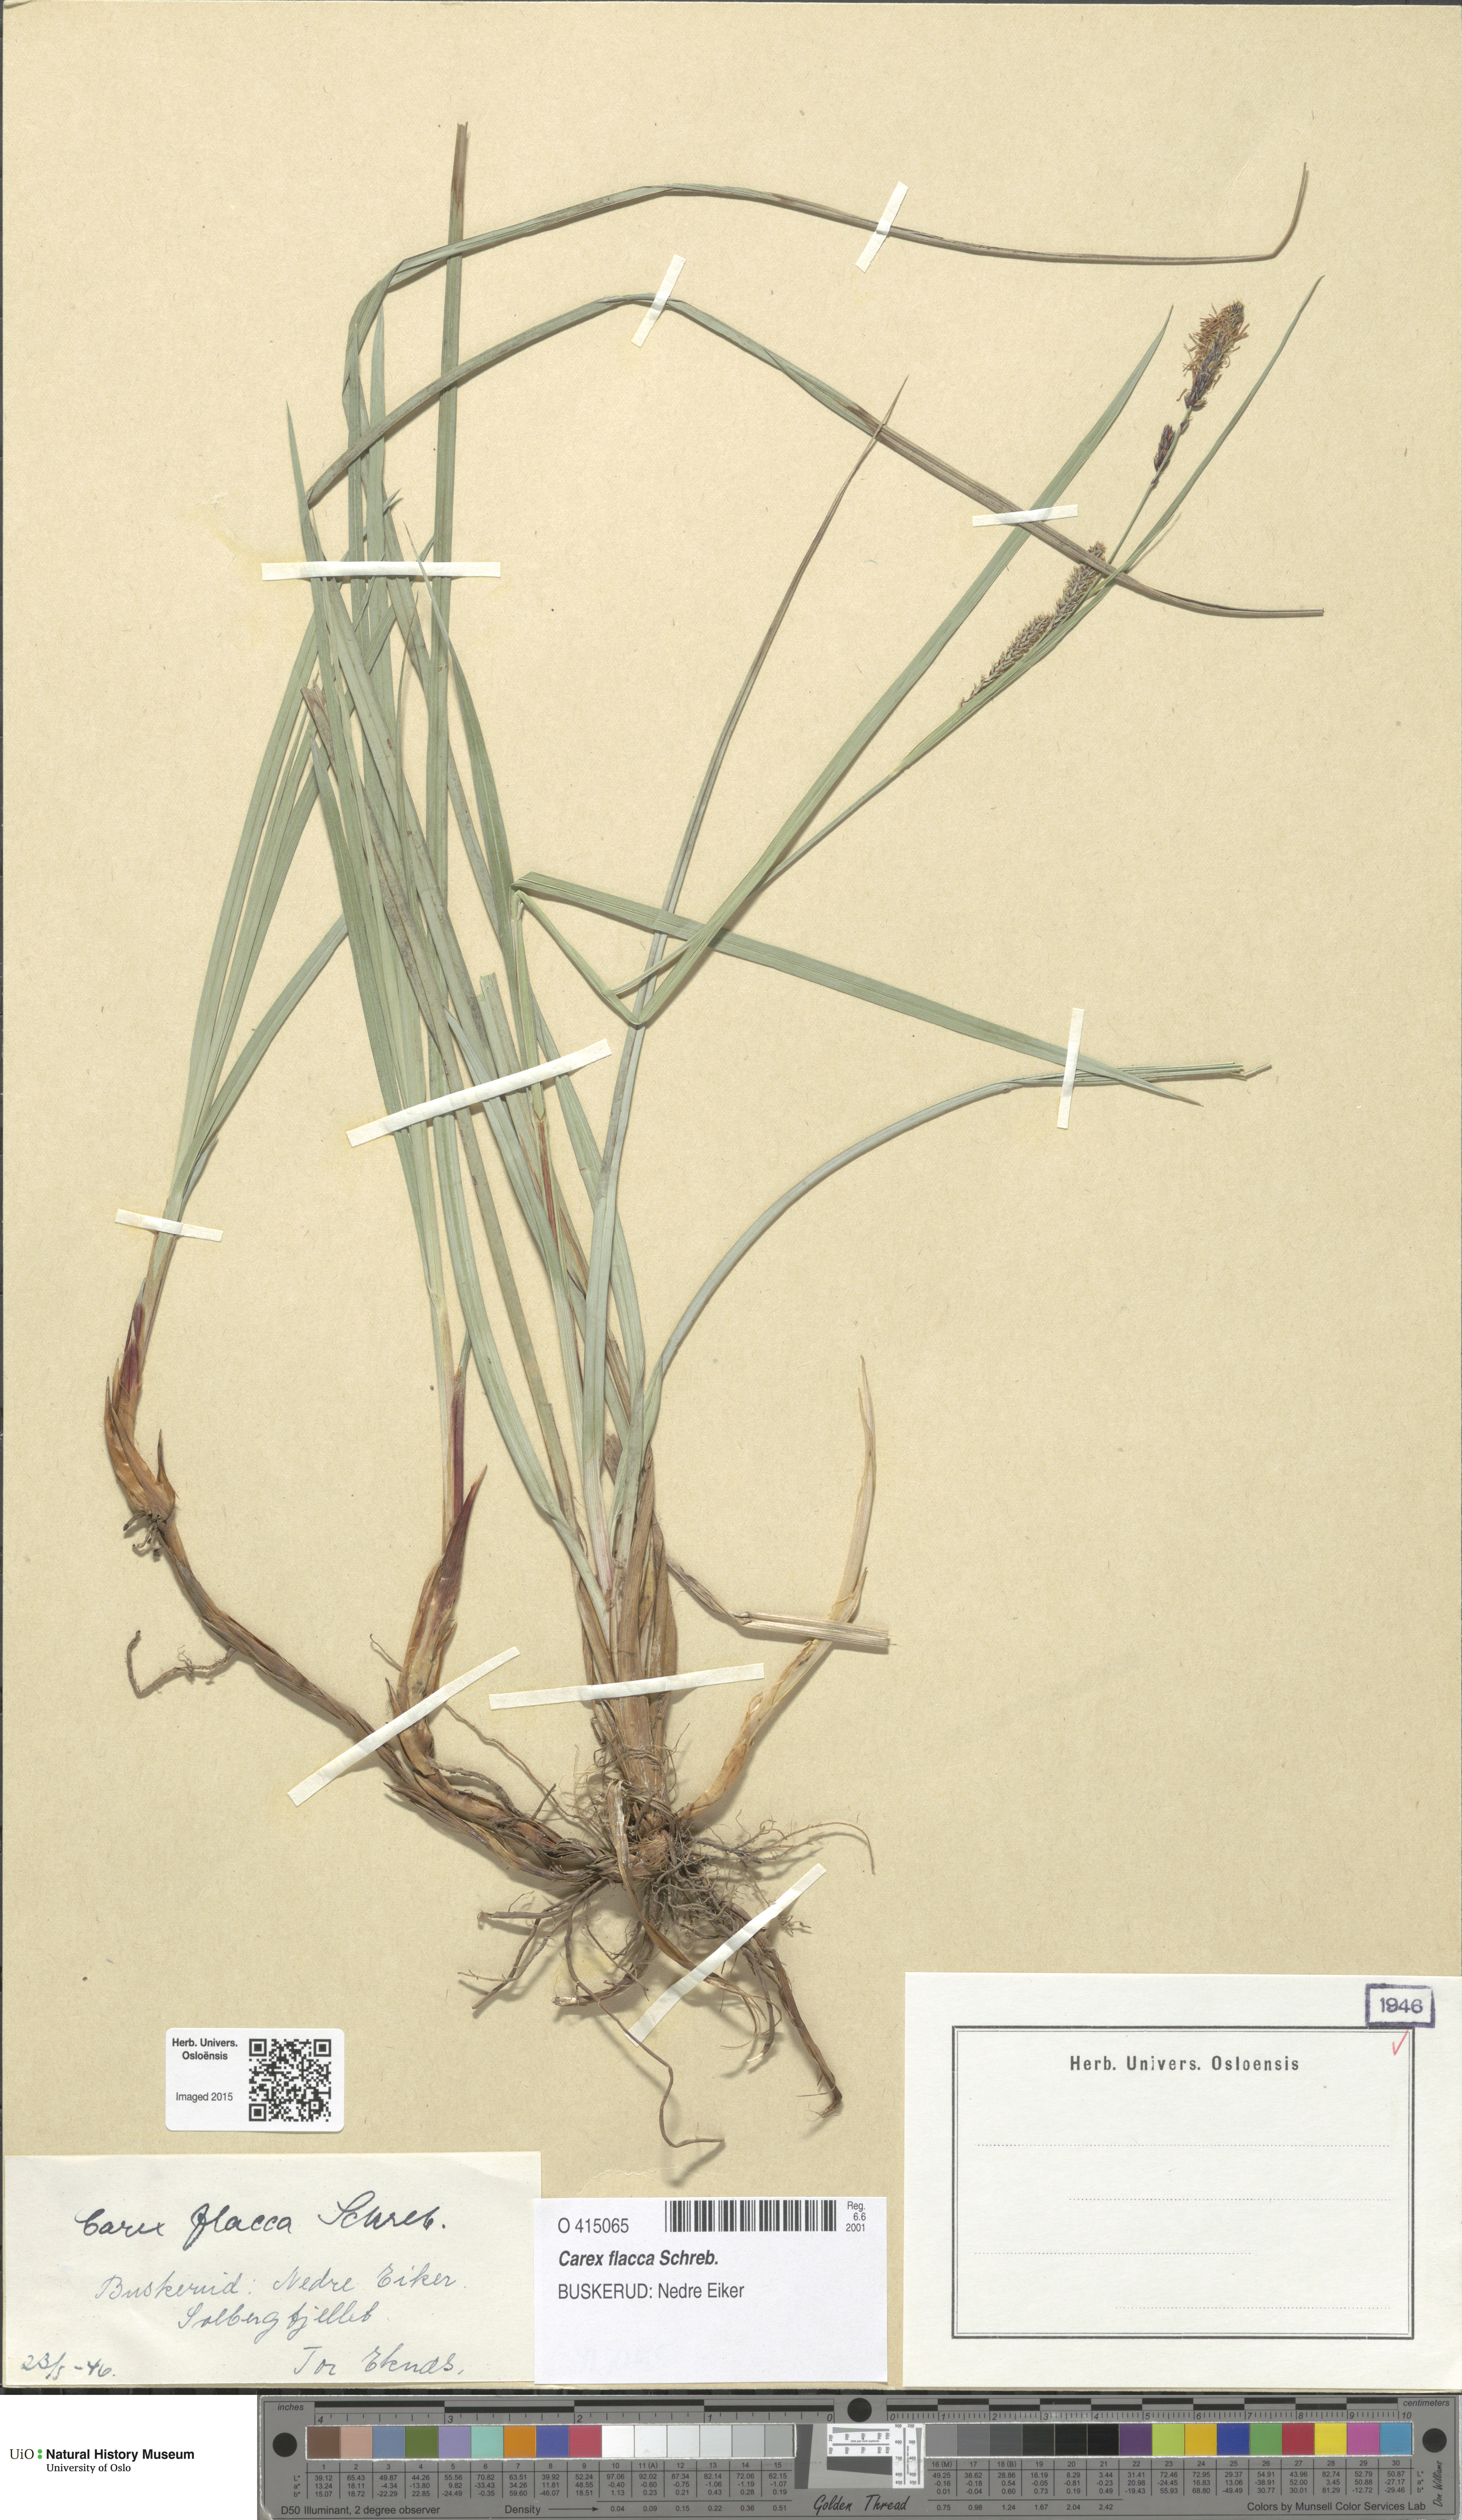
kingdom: Plantae
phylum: Tracheophyta
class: Liliopsida
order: Poales
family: Cyperaceae
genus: Carex
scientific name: Carex flacca
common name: Glaucous sedge
